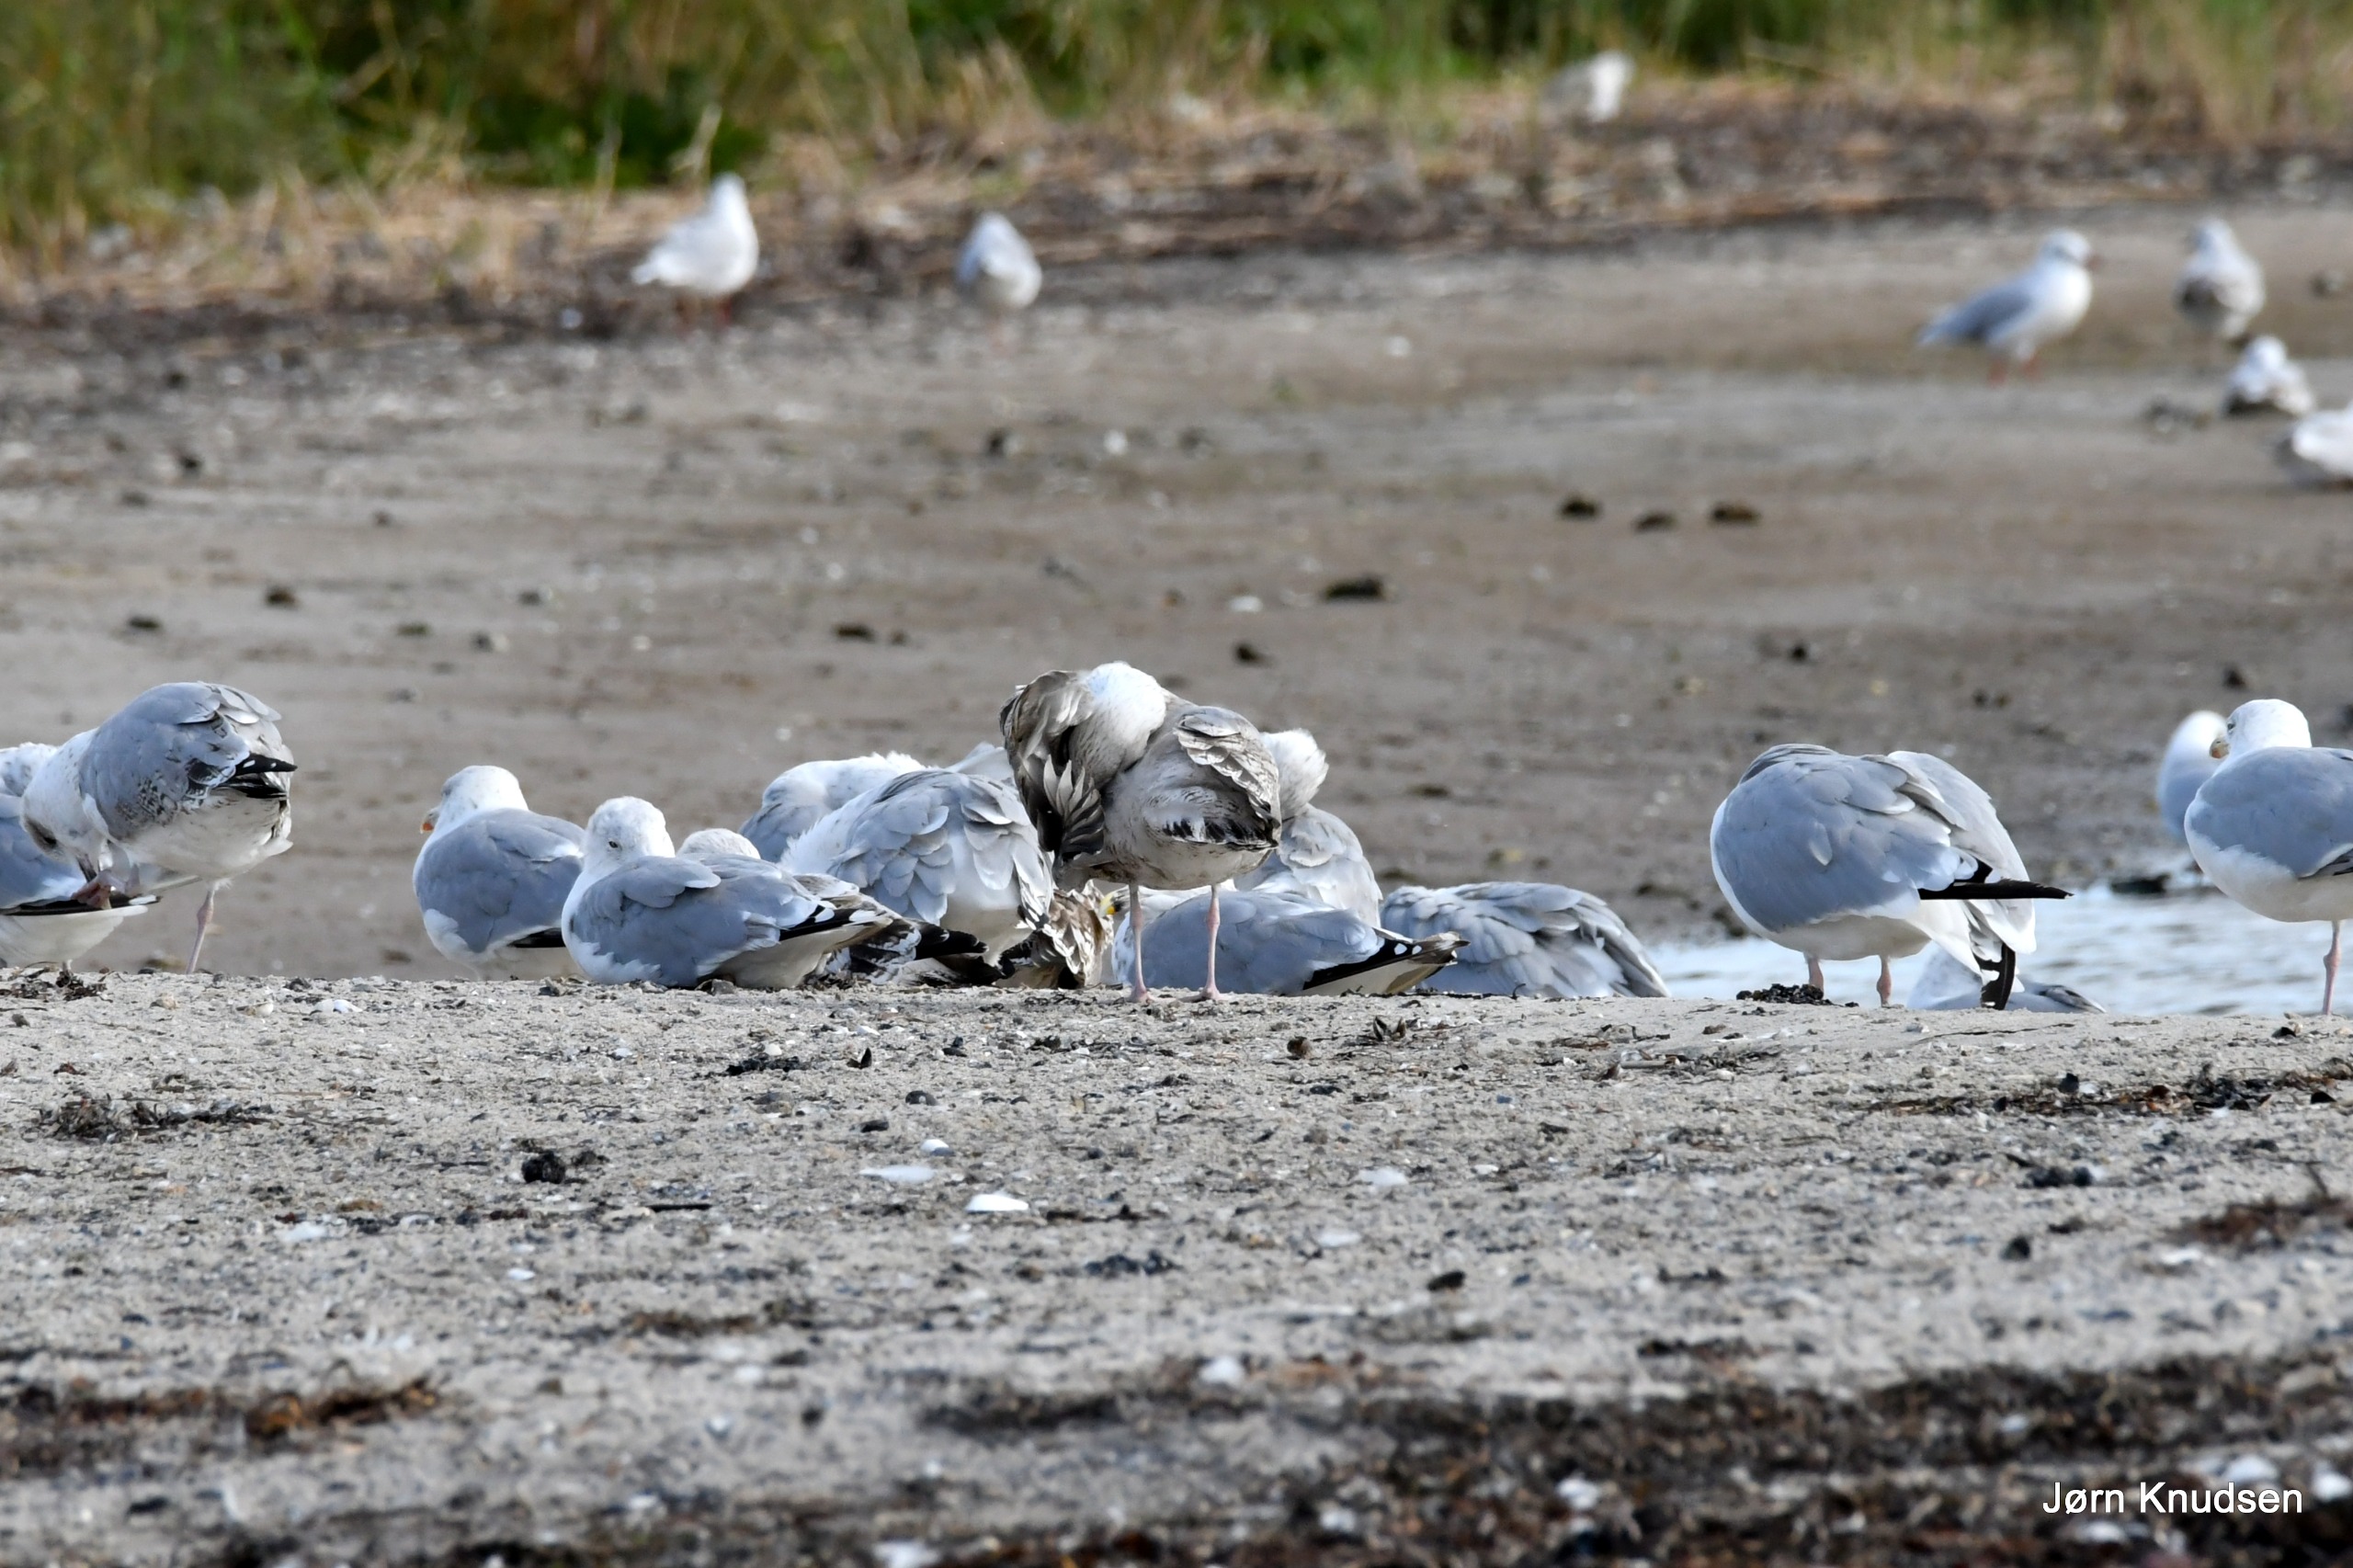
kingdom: Animalia
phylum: Chordata
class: Aves
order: Charadriiformes
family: Laridae
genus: Larus
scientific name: Larus argentatus
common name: Sølvmåge
